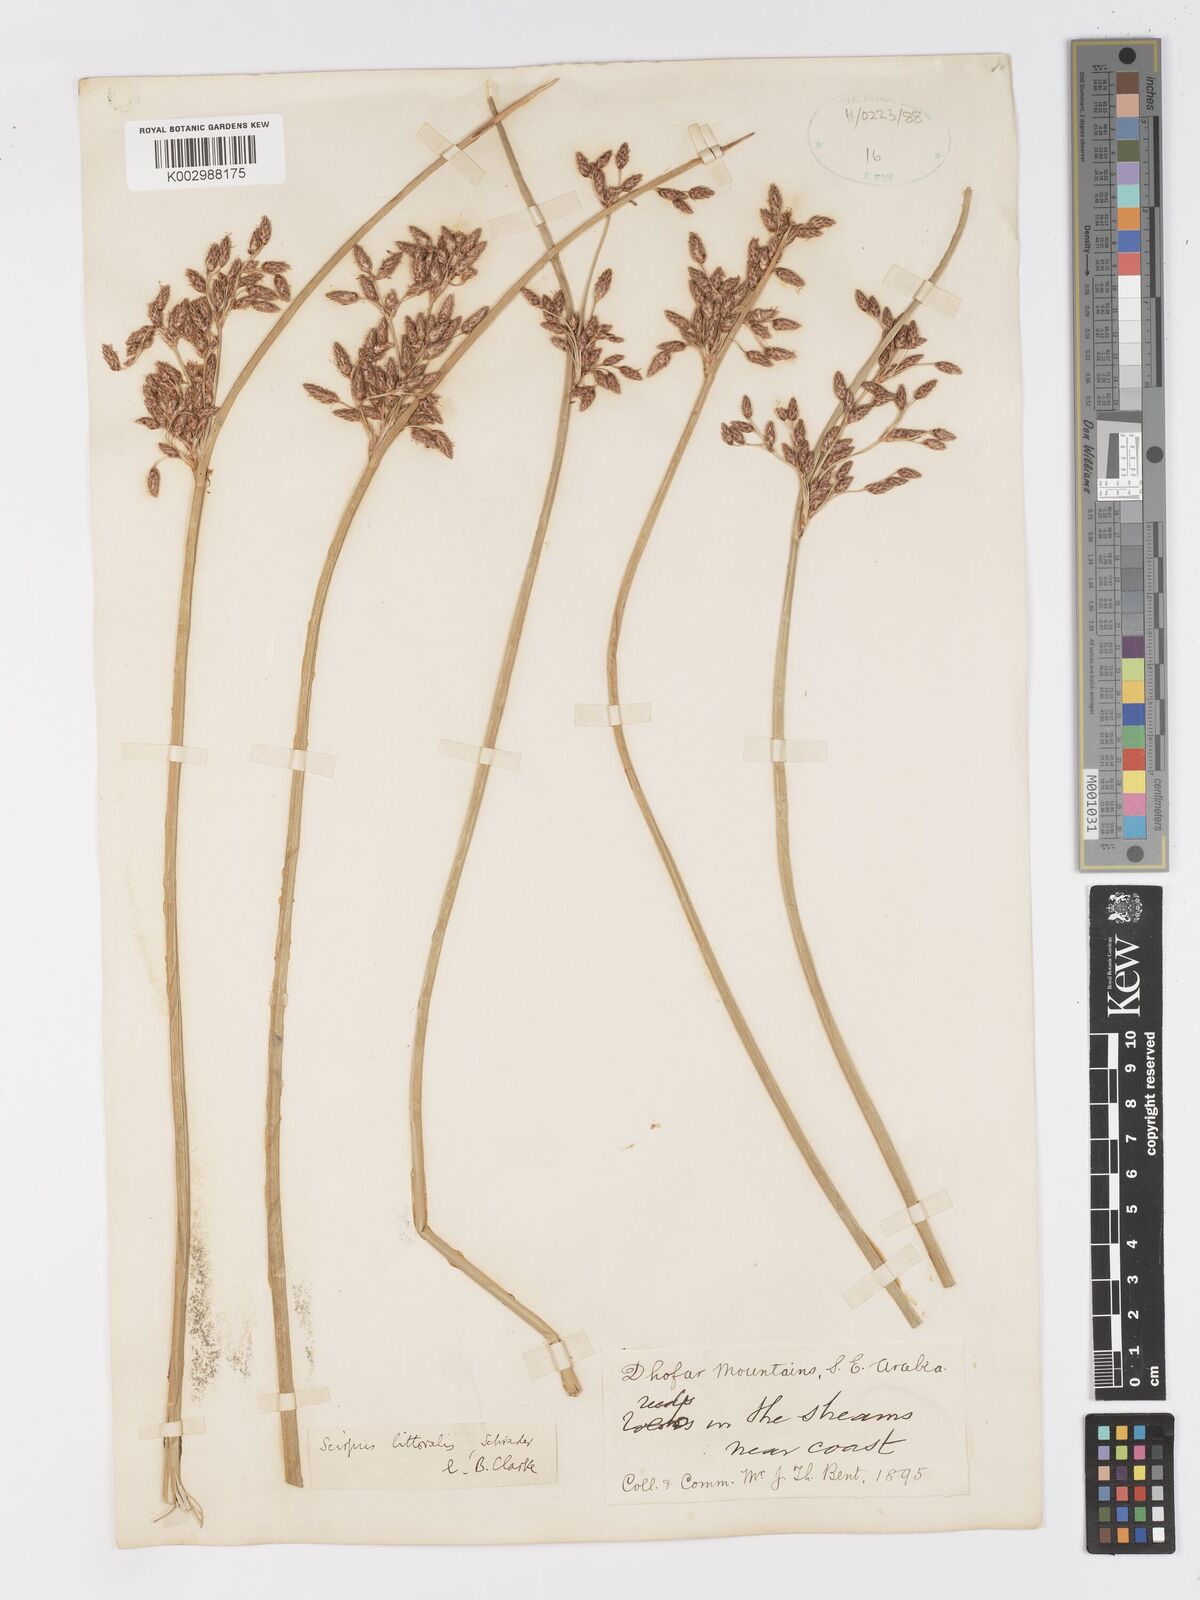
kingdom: Plantae
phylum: Tracheophyta
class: Liliopsida
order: Poales
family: Cyperaceae
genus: Schoenoplectus
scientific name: Schoenoplectus litoralis
